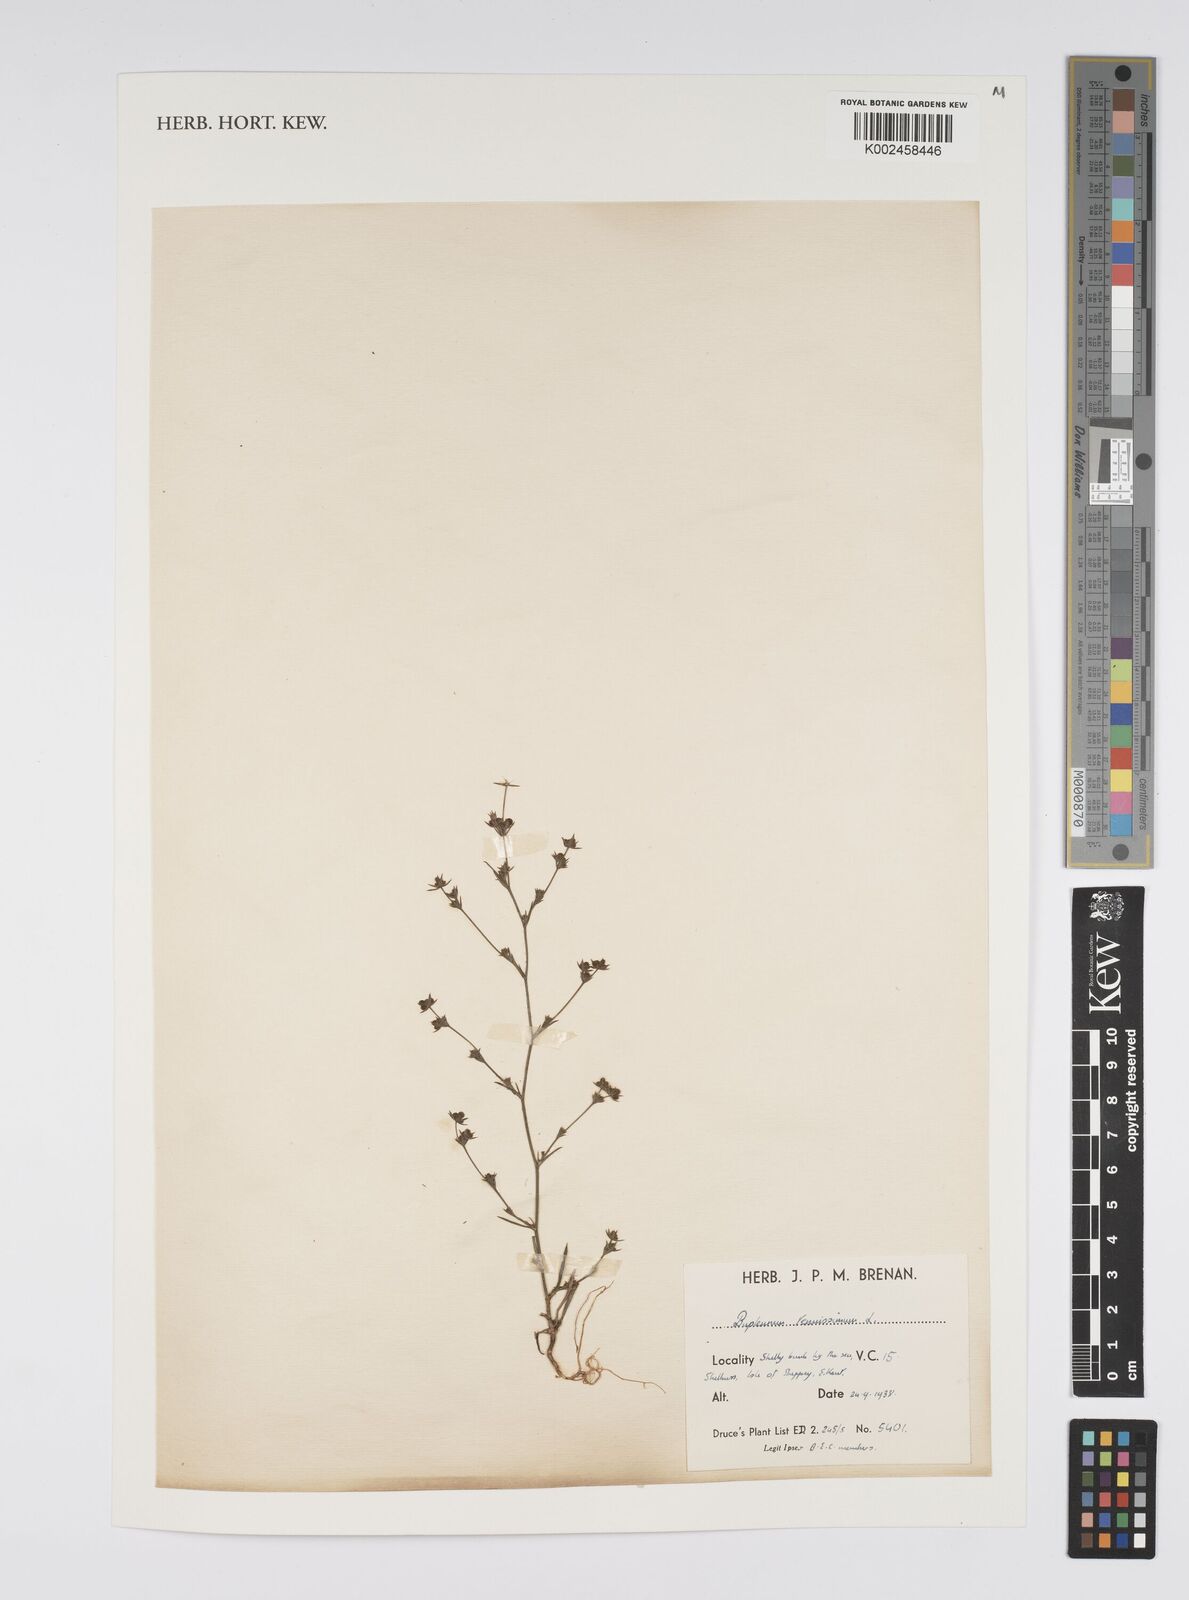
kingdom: Plantae
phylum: Tracheophyta
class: Magnoliopsida
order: Apiales
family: Apiaceae
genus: Bupleurum
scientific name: Bupleurum tenuissimum
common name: Slender hare's-ear
